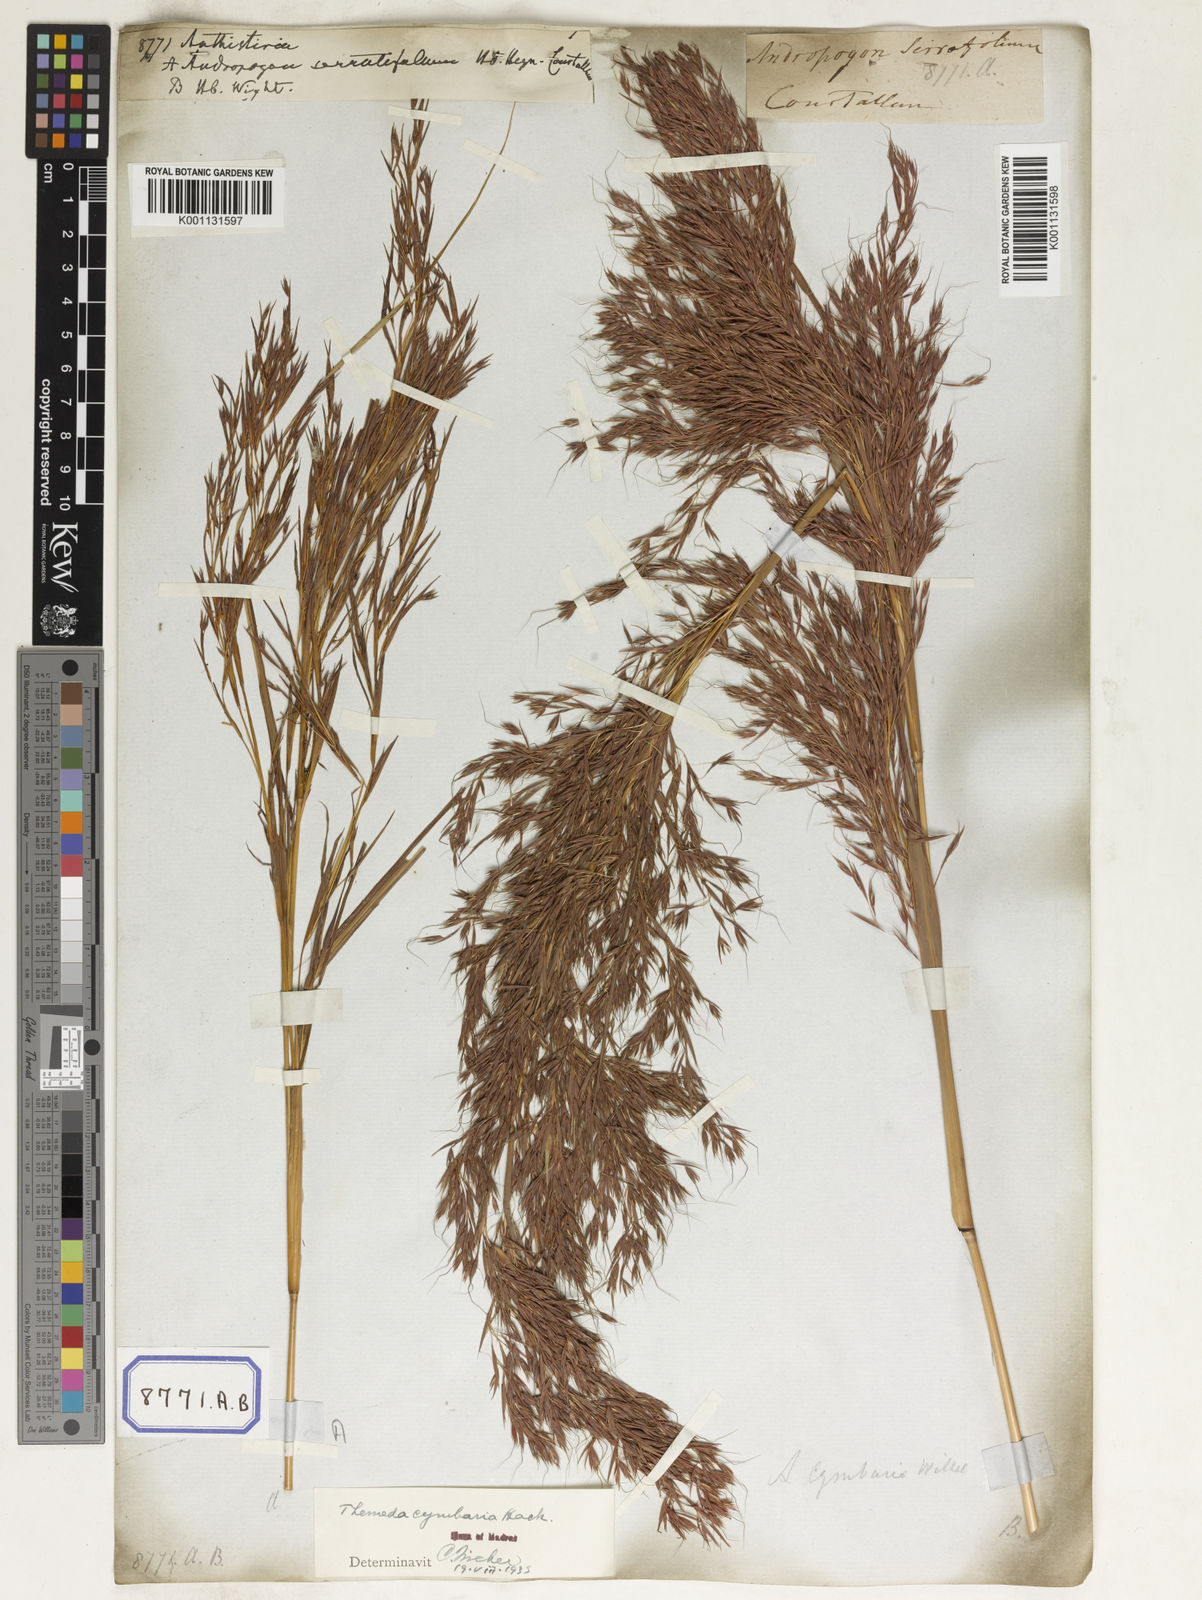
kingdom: Plantae
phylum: Tracheophyta
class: Liliopsida
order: Poales
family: Poaceae
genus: Themeda
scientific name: Themeda
